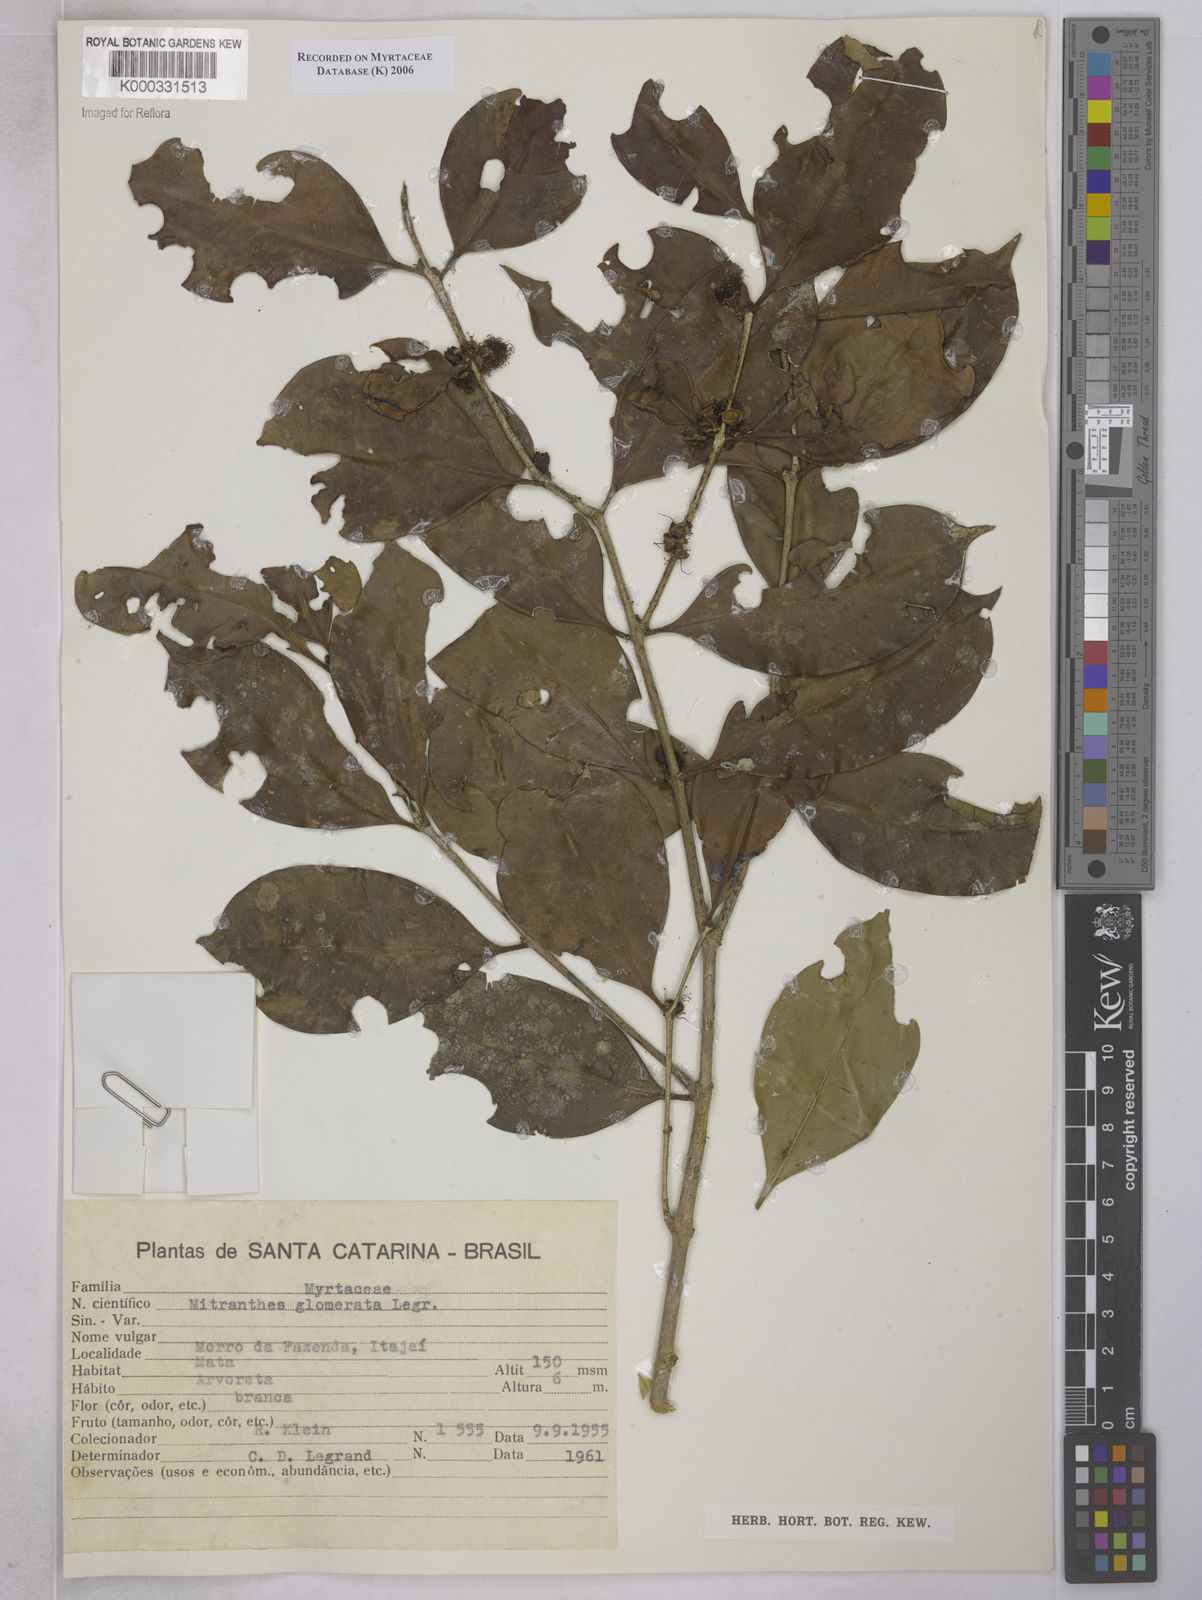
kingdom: Plantae
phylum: Tracheophyta
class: Magnoliopsida
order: Myrtales
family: Myrtaceae
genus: Neomitranthes
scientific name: Neomitranthes glomerata
